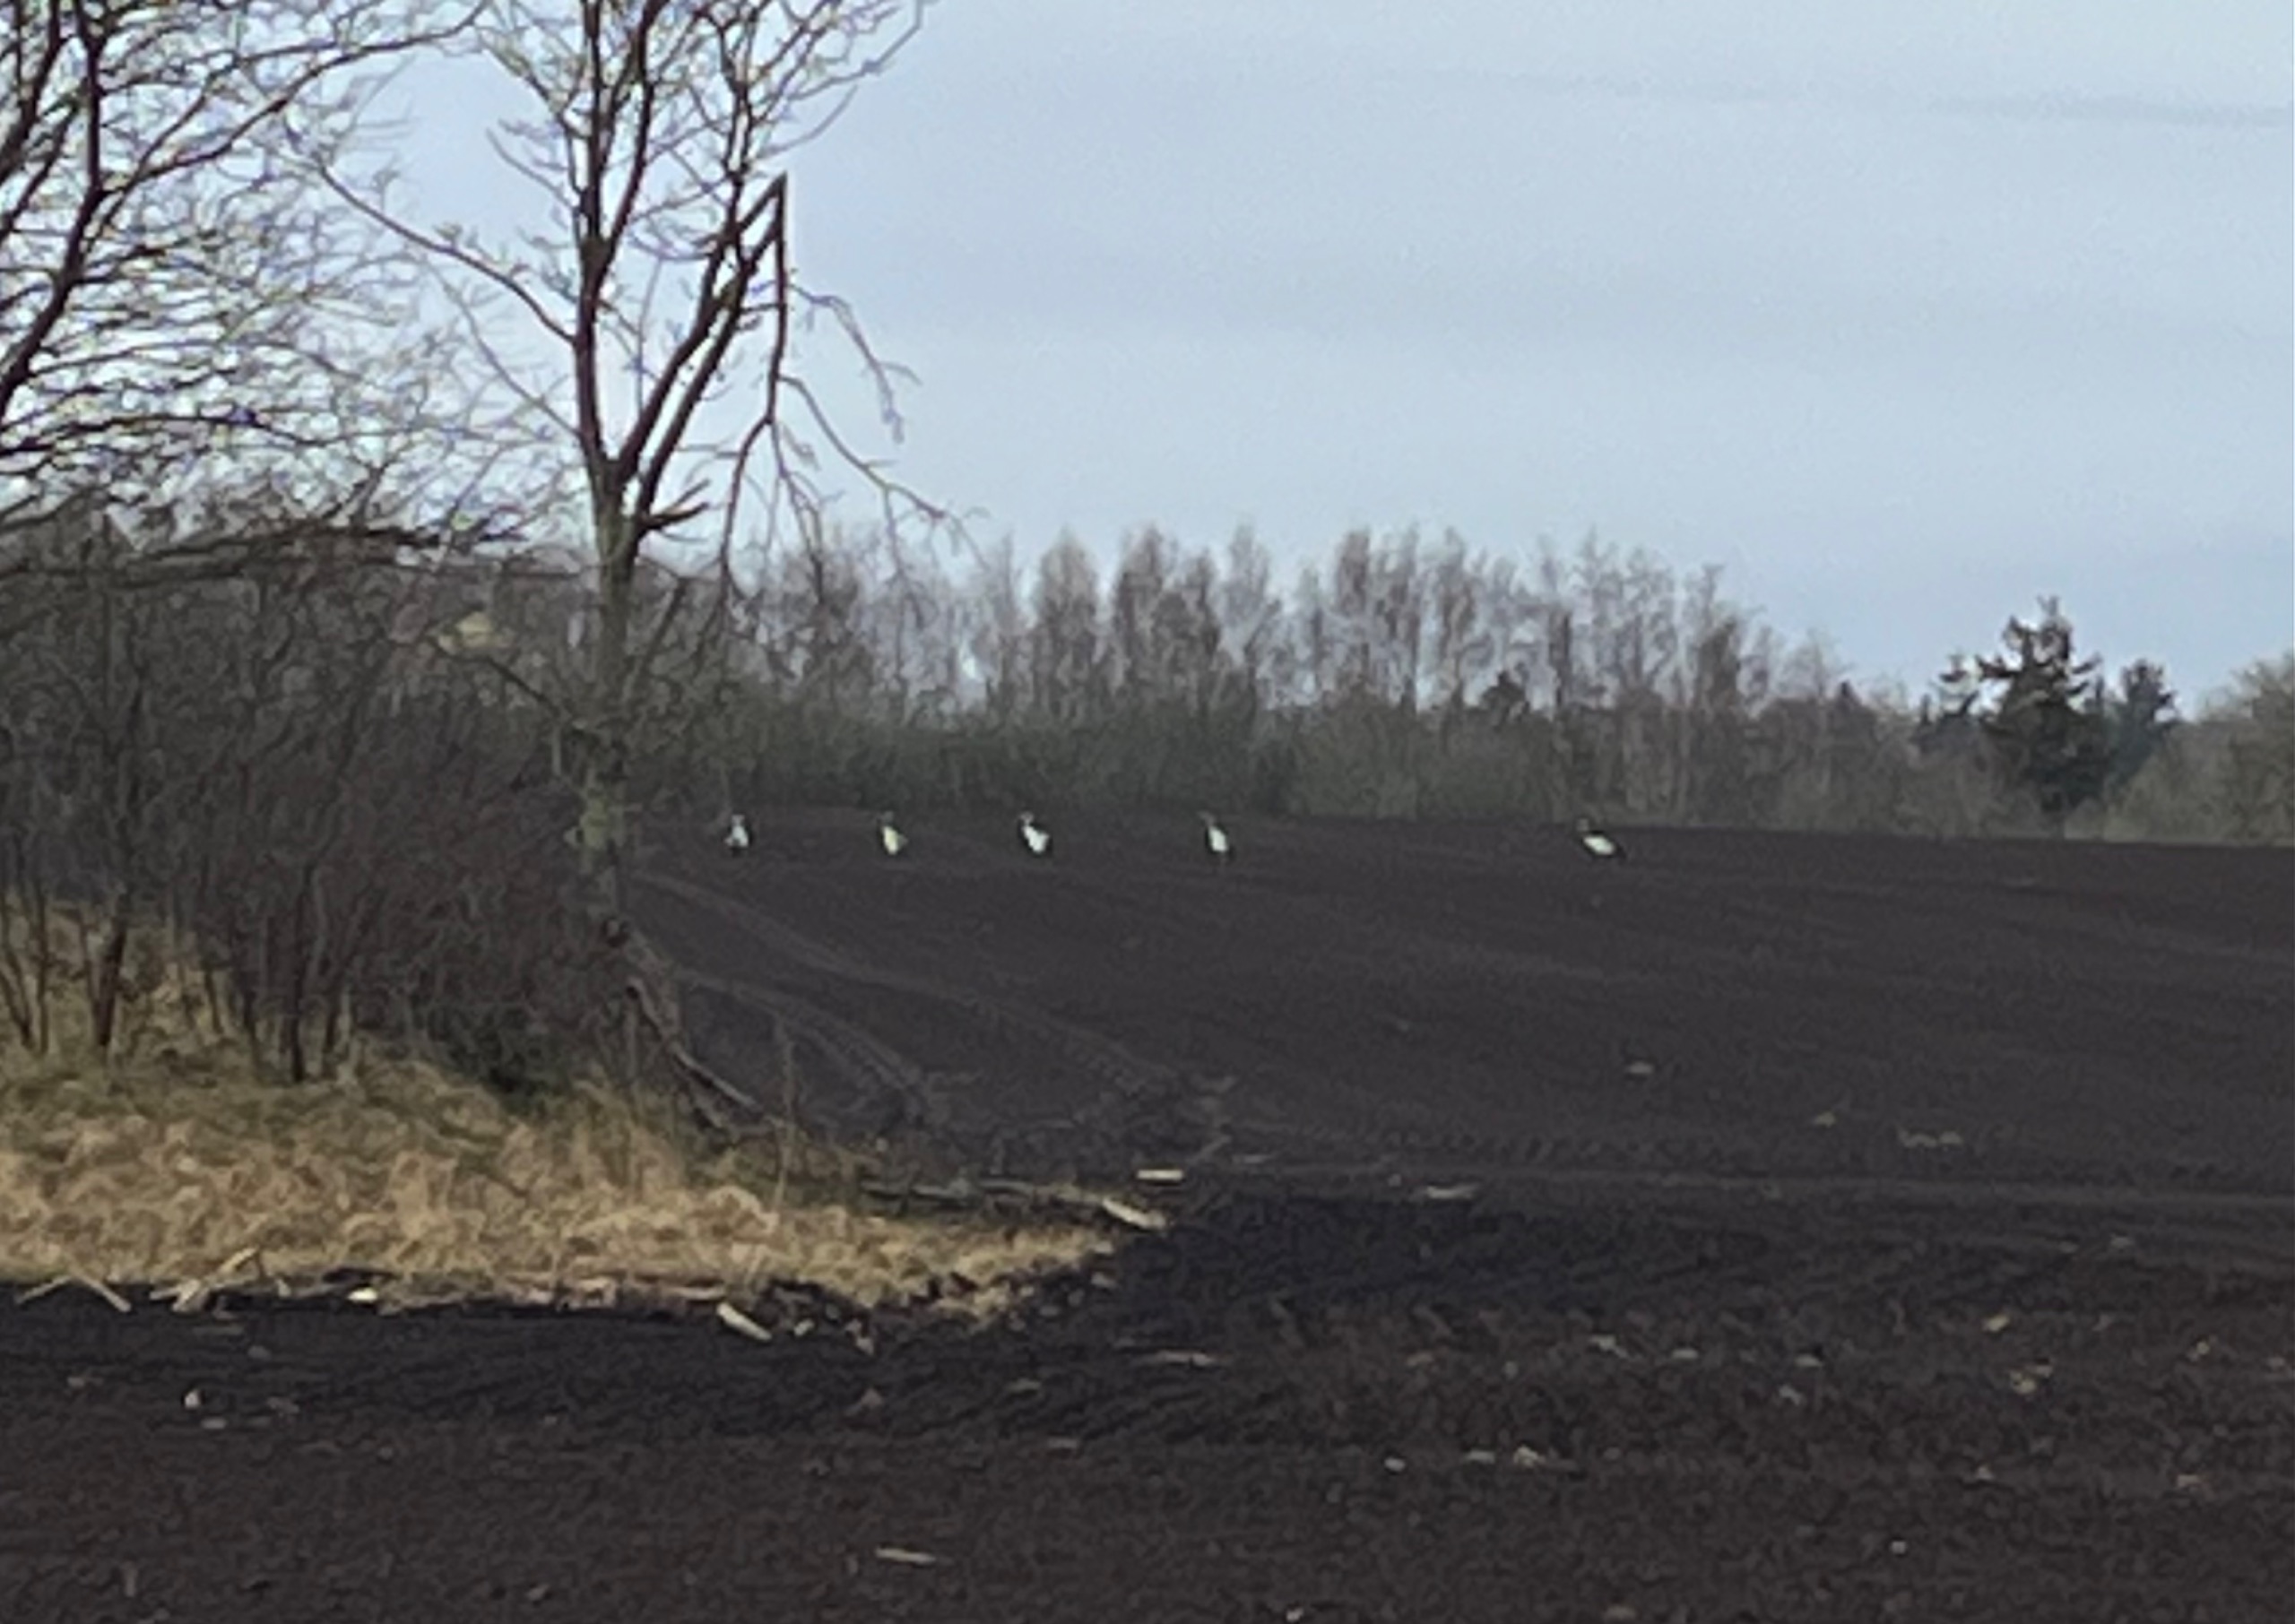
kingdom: Animalia
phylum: Chordata
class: Aves
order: Gruiformes
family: Gruidae
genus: Grus
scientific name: Grus grus
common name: Trane
